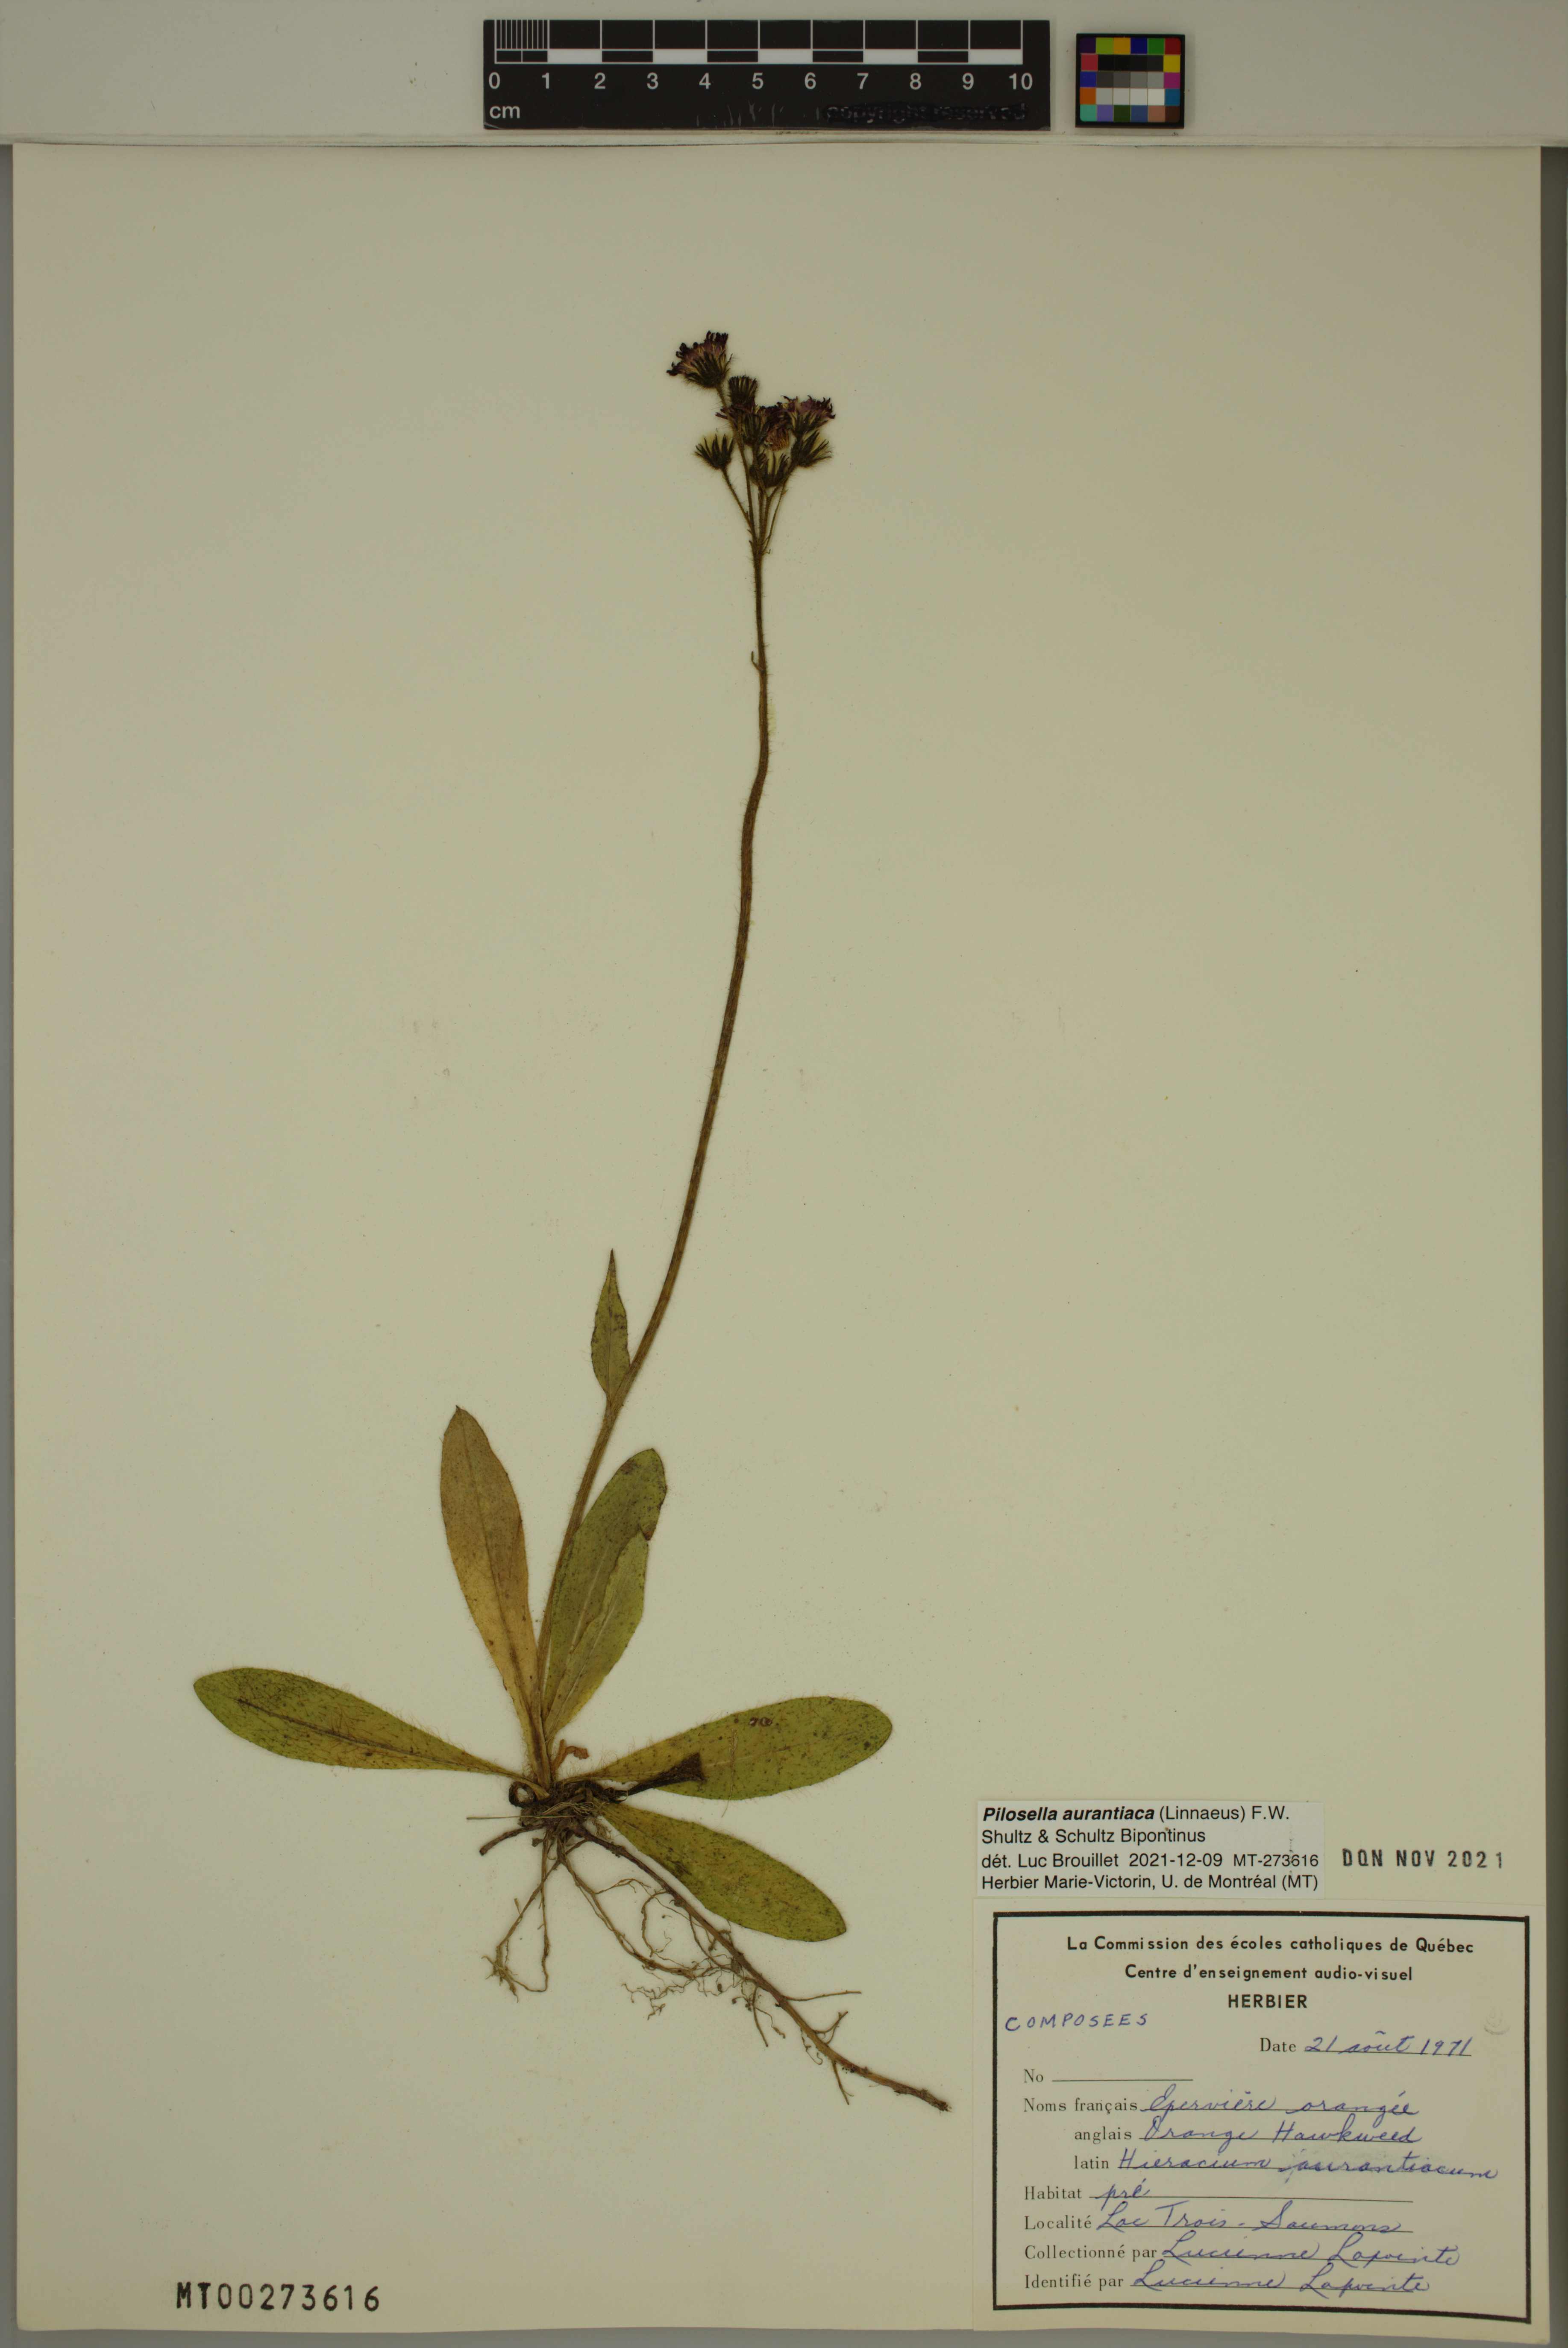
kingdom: Plantae
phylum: Tracheophyta
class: Magnoliopsida
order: Asterales
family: Asteraceae
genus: Pilosella
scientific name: Pilosella aurantiaca
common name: Fox-and-cubs
